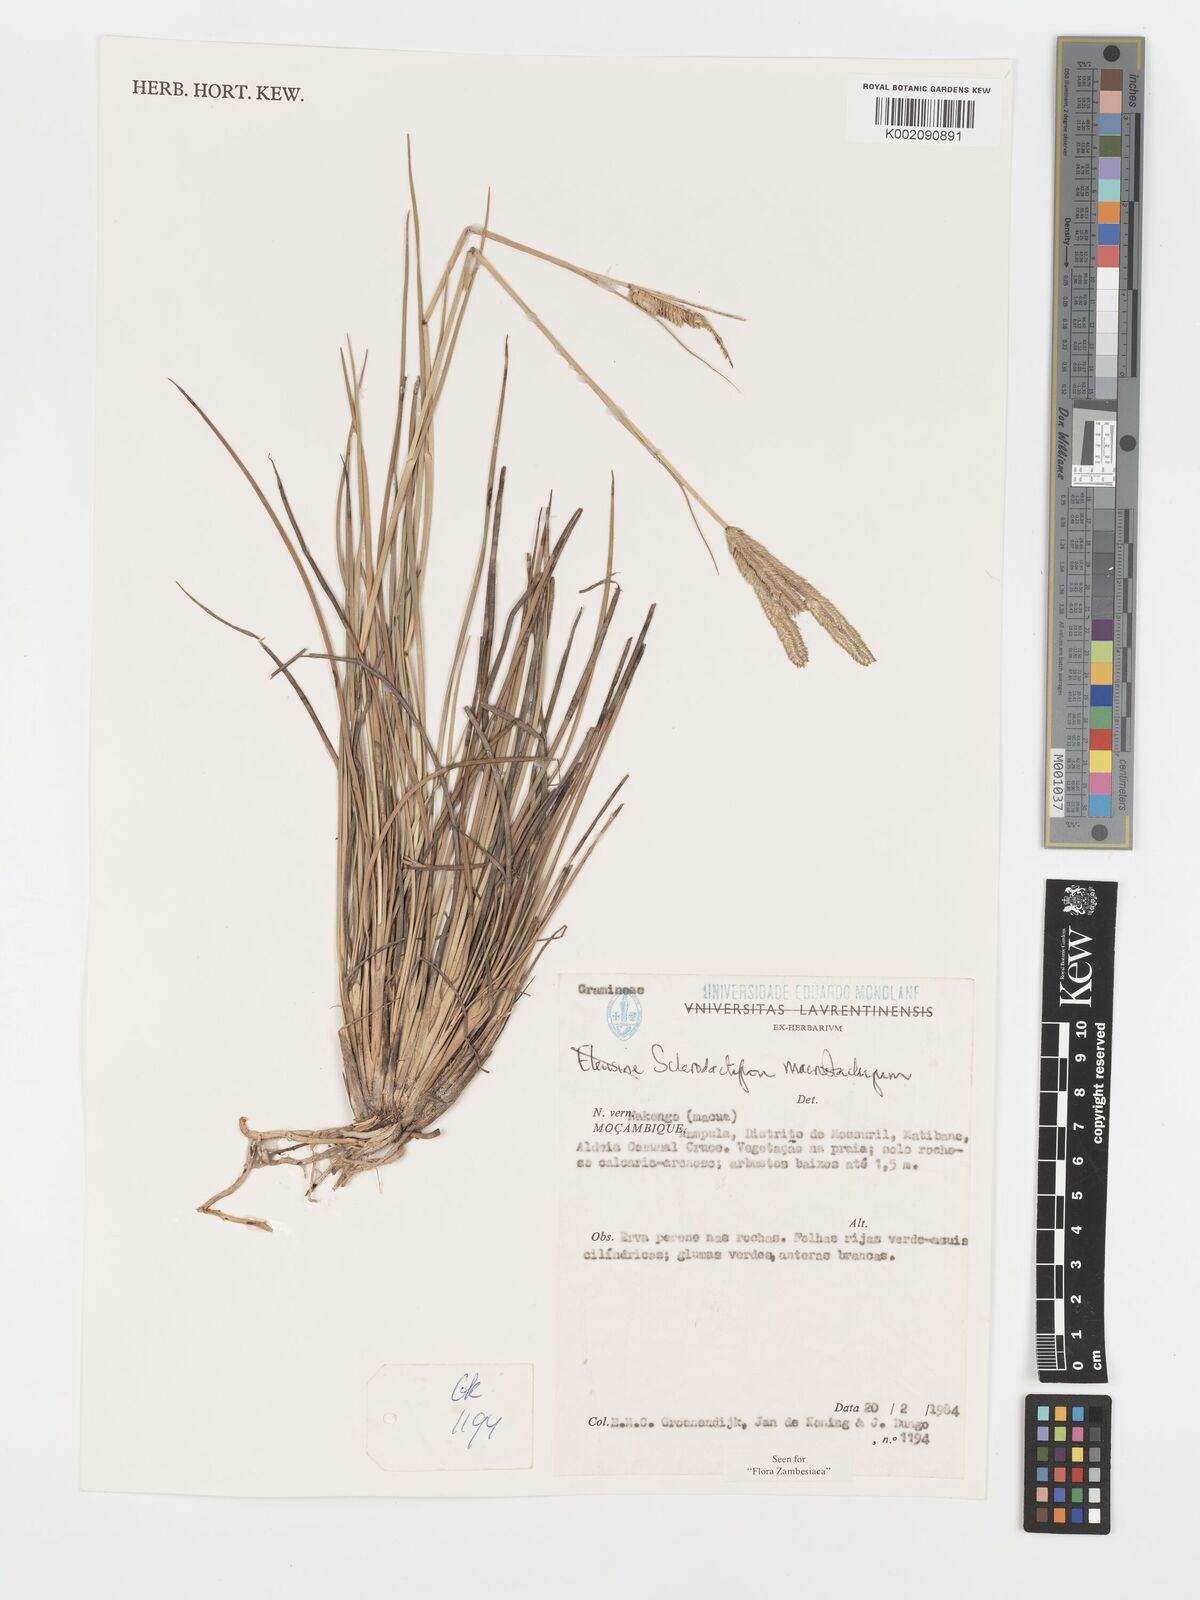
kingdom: Plantae
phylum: Tracheophyta
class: Liliopsida
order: Poales
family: Poaceae
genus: Sclerodactylon
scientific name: Sclerodactylon macrostachyum
